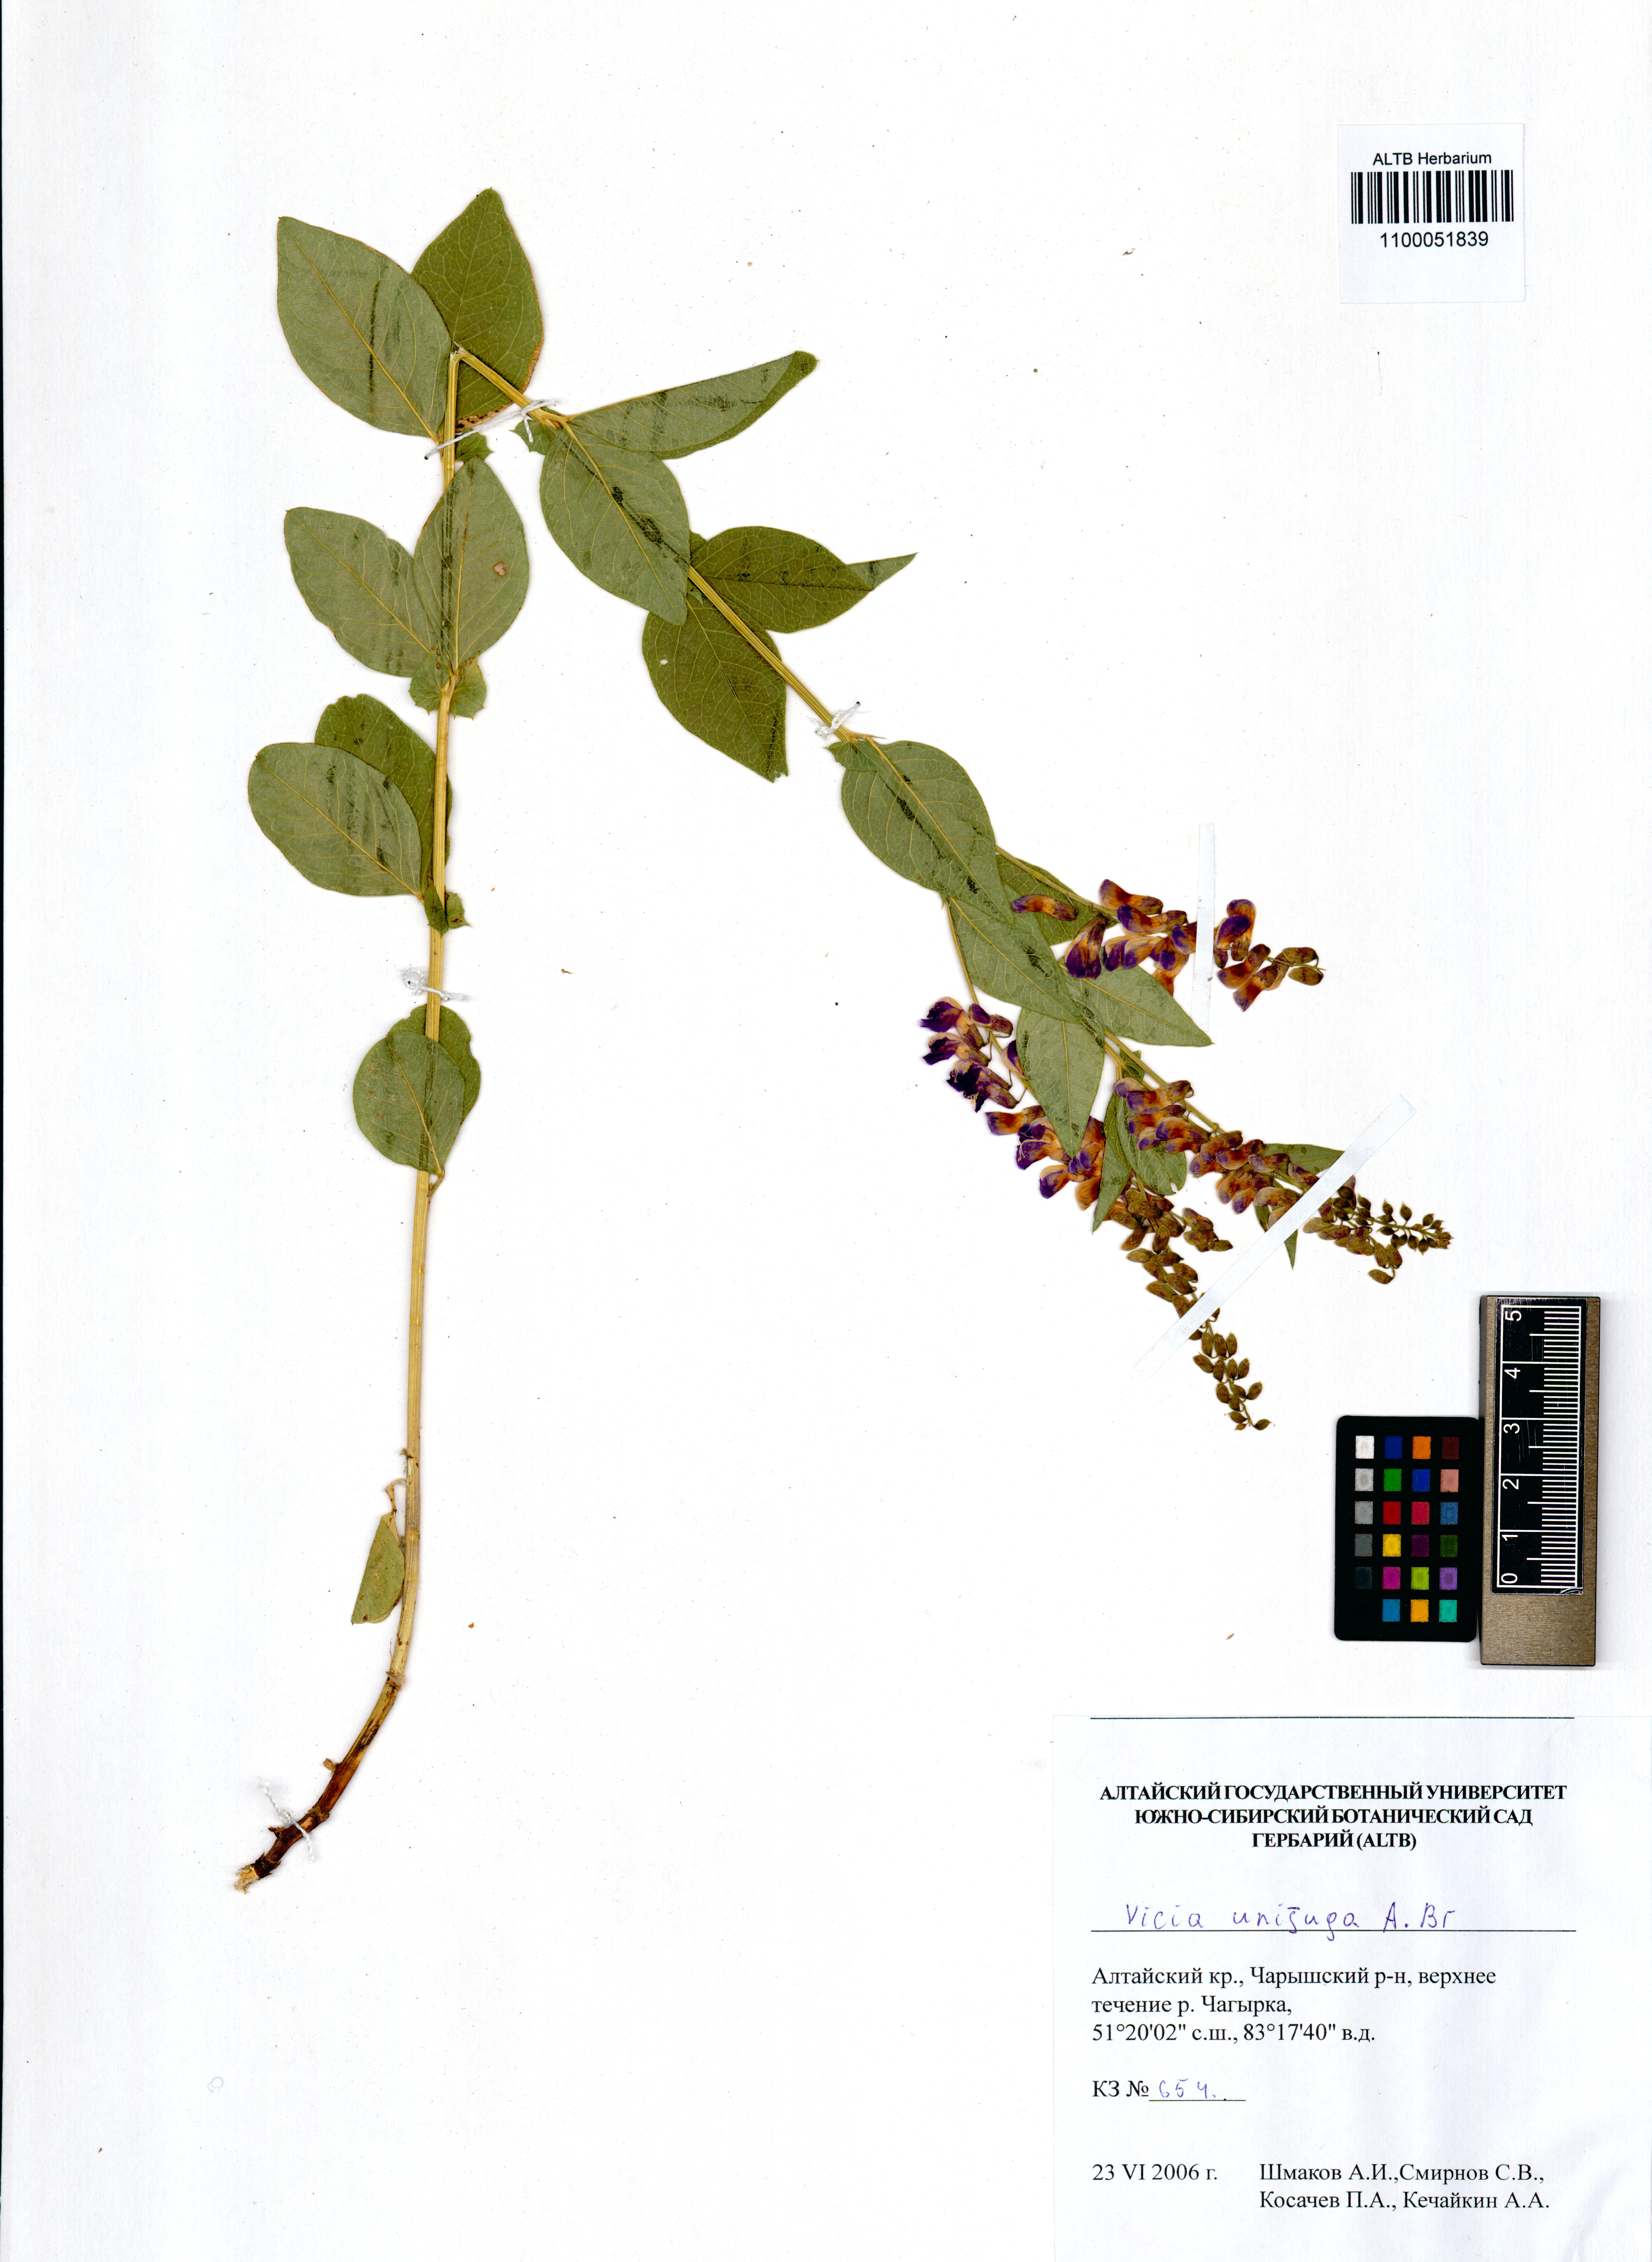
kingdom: Plantae
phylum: Tracheophyta
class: Magnoliopsida
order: Fabales
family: Fabaceae
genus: Vicia
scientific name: Vicia unijuga
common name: Two-leaf vetch
